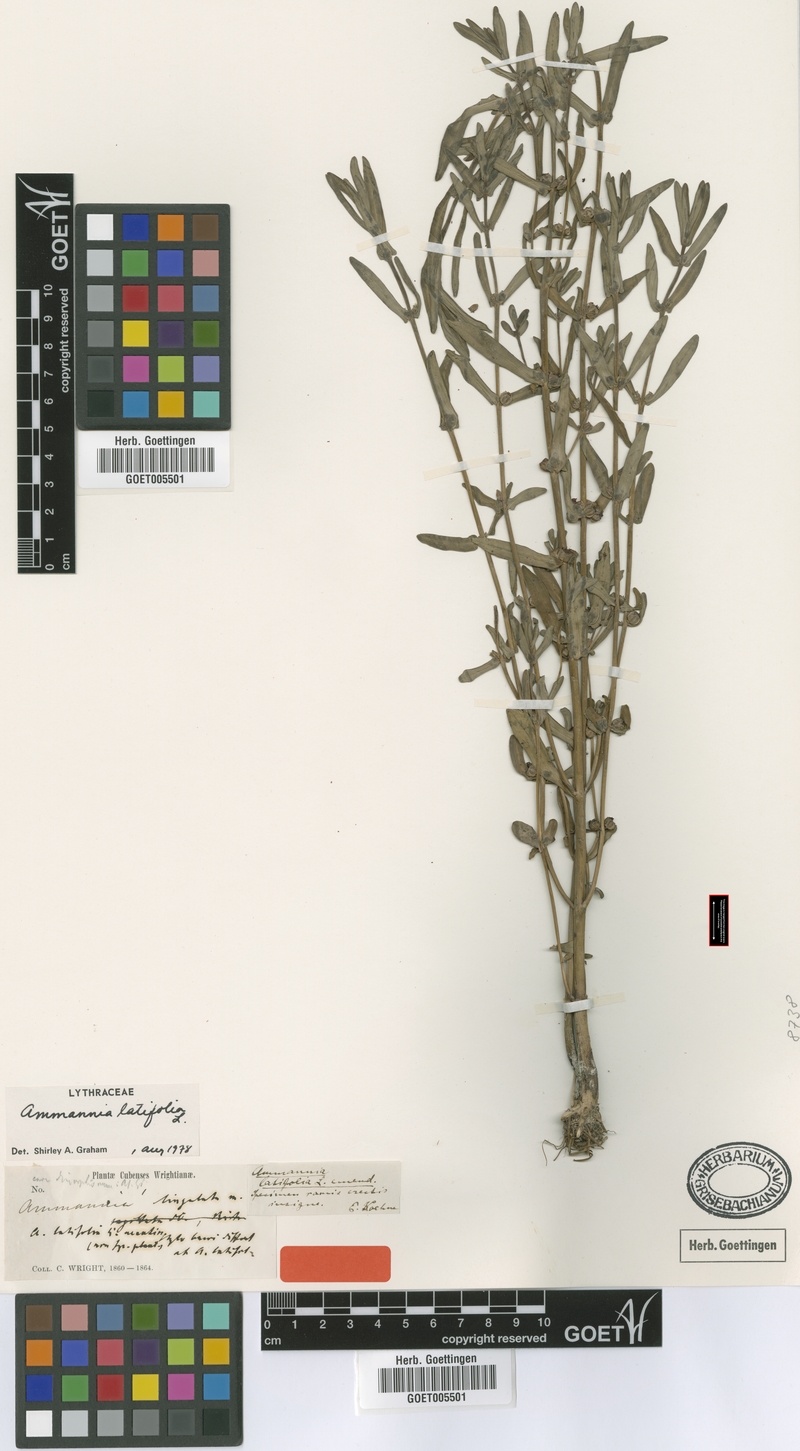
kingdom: Plantae
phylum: Tracheophyta
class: Magnoliopsida
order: Myrtales
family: Lythraceae
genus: Ammannia
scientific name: Ammannia latifolia
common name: Toothcup
